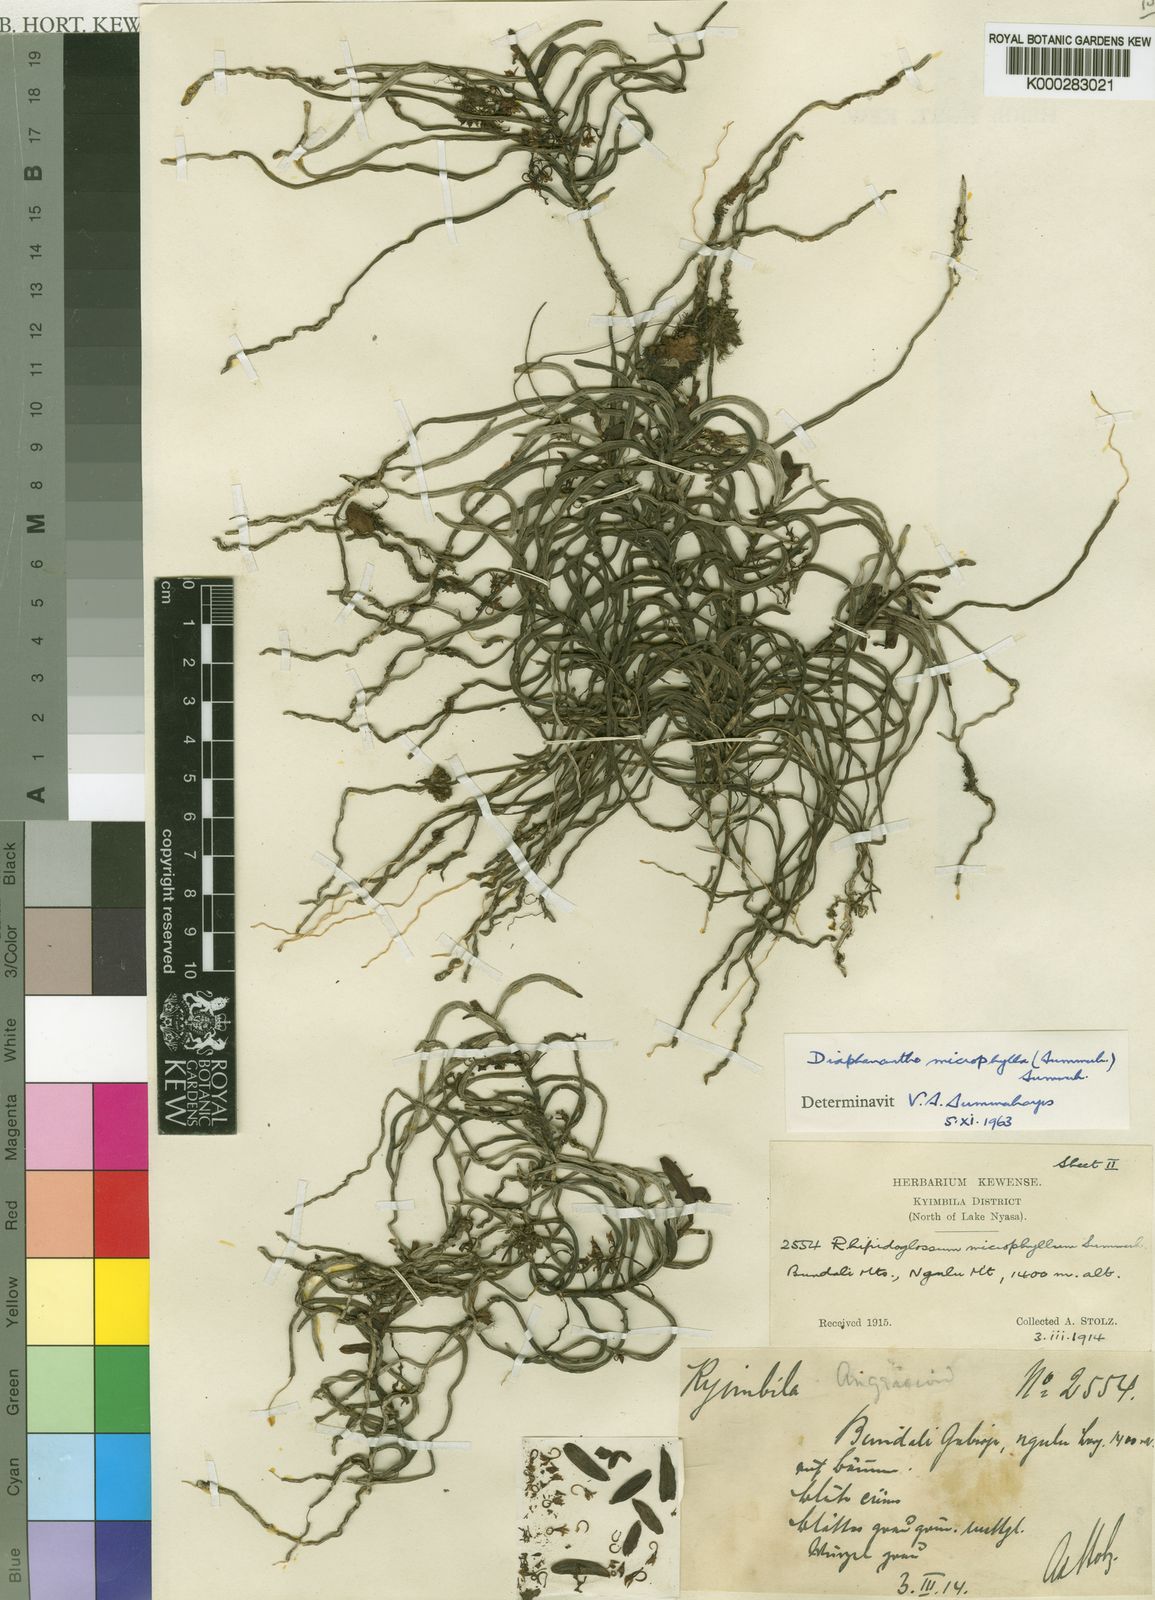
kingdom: Plantae
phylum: Tracheophyta
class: Liliopsida
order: Asparagales
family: Orchidaceae
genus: Rhipidoglossum
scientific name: Rhipidoglossum microphyllum
